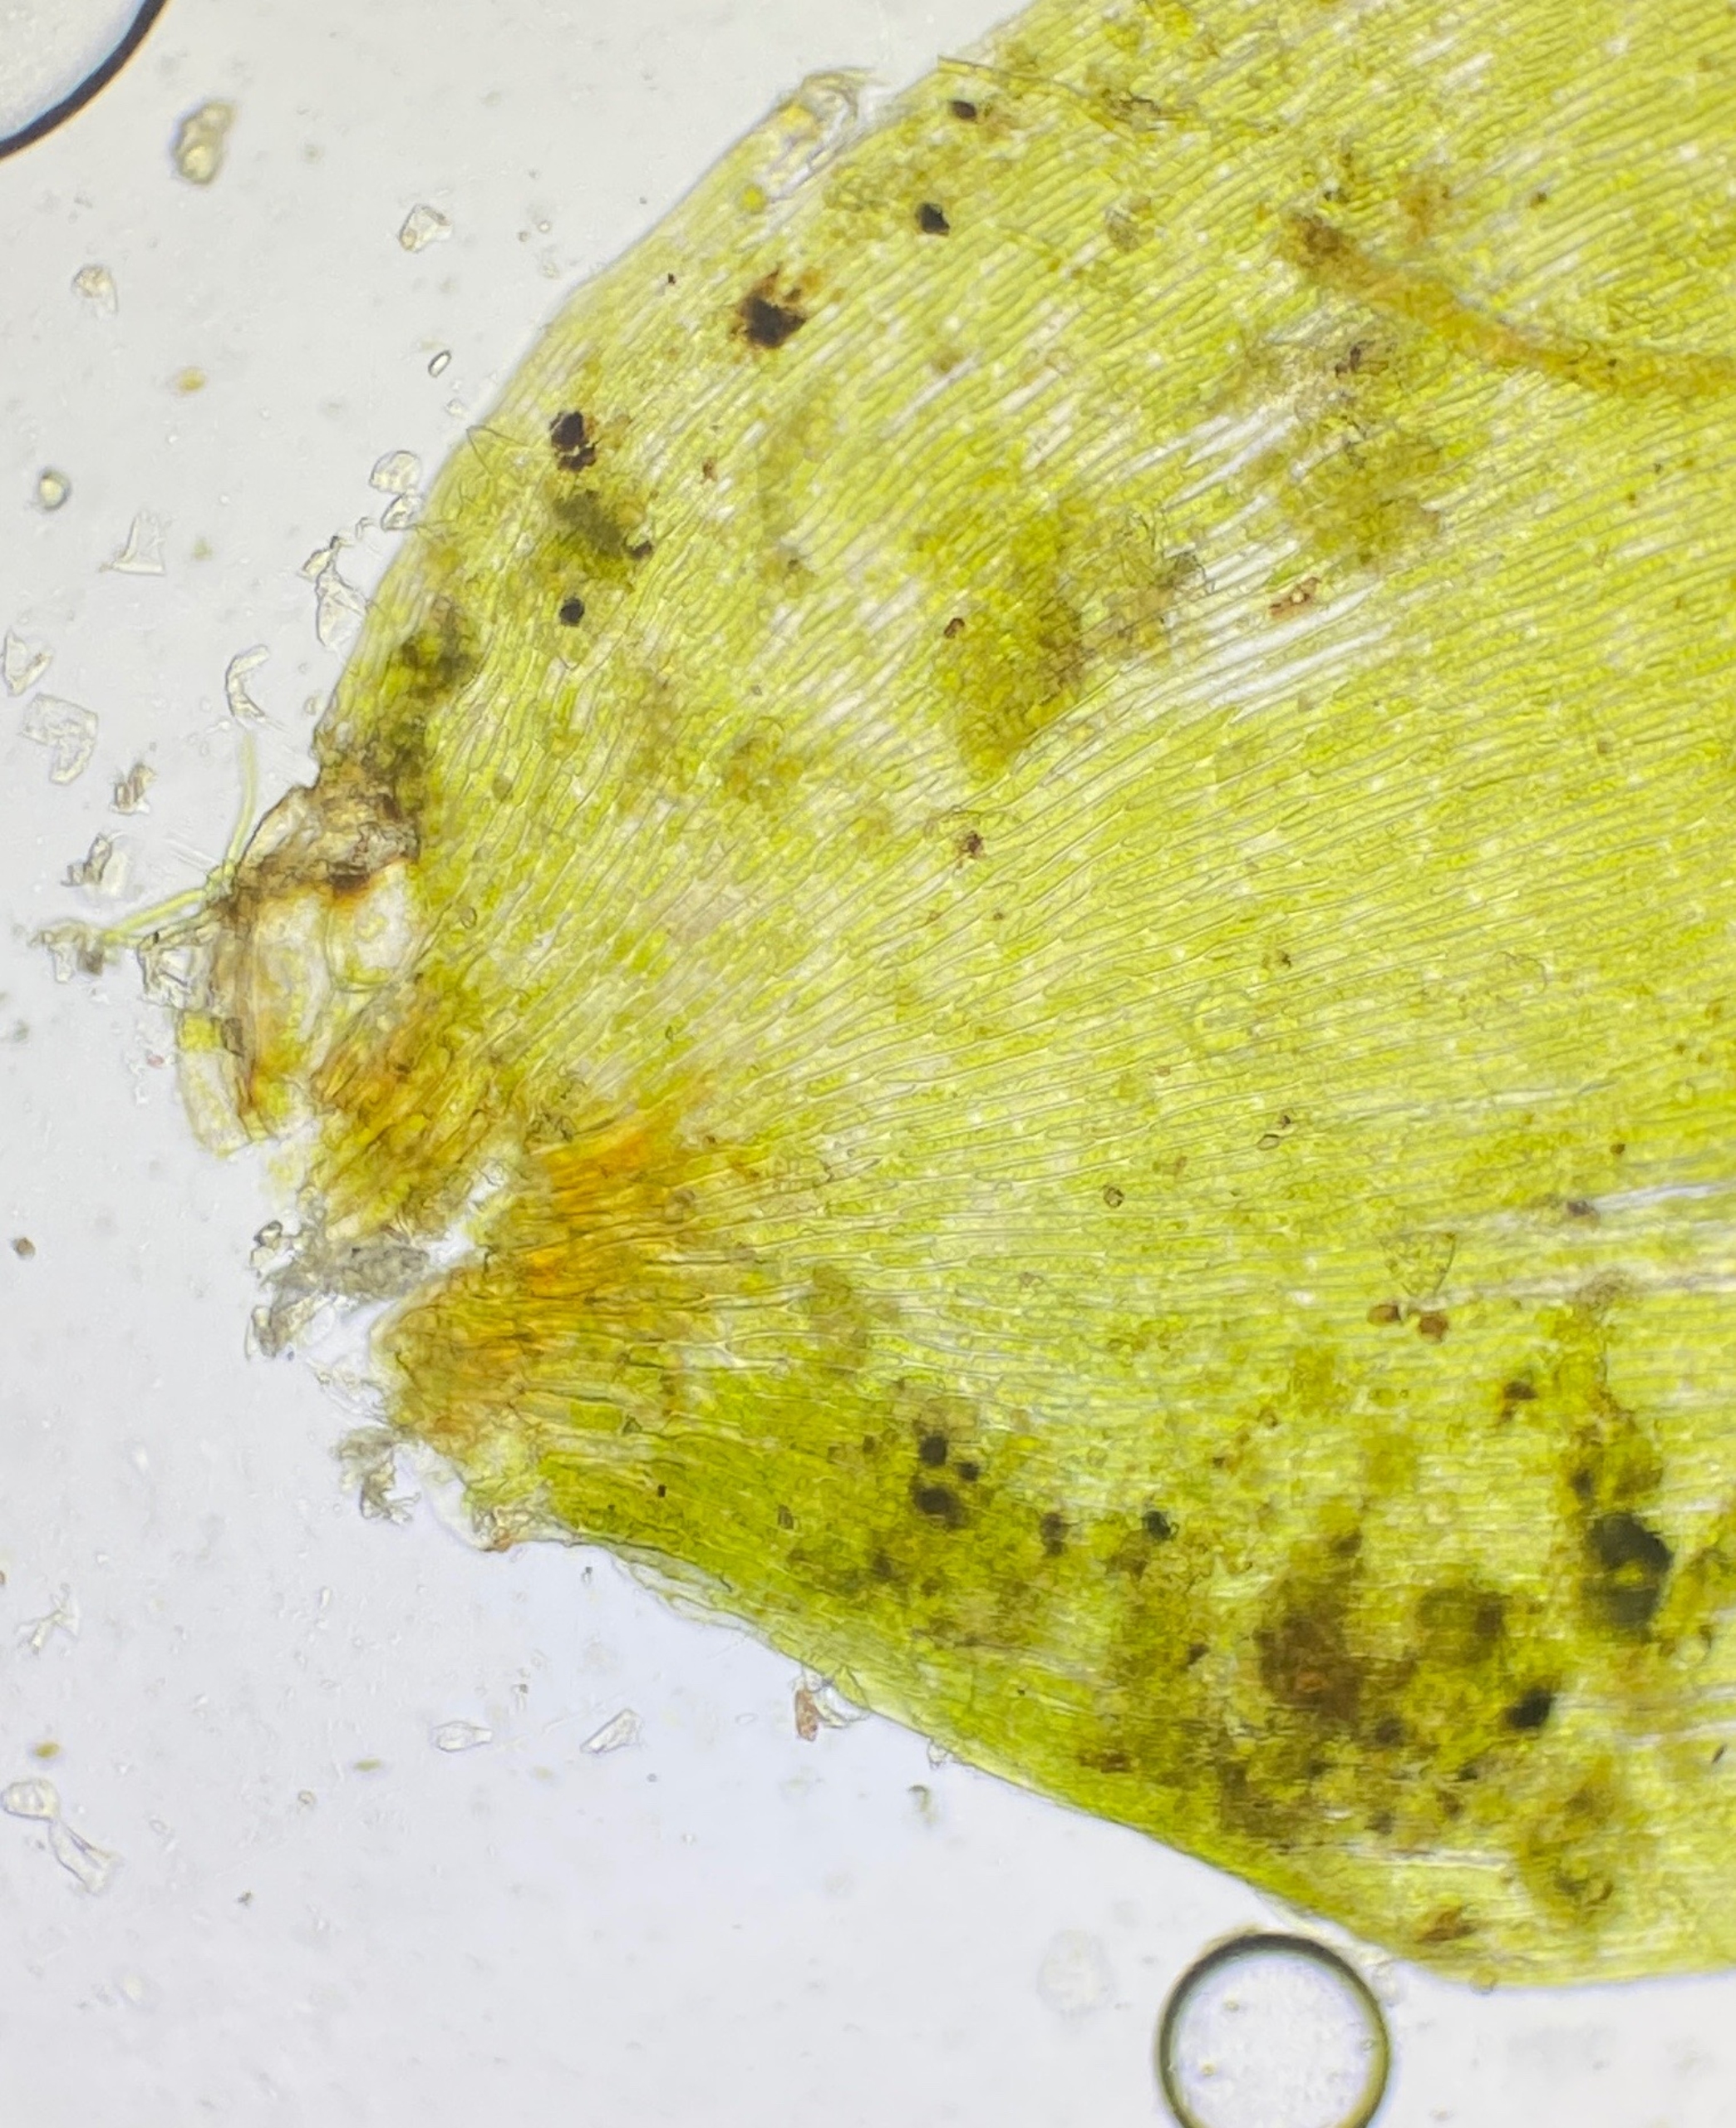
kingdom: Plantae
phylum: Bryophyta
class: Bryopsida
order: Hypnales
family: Fontinalaceae
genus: Fontinalis
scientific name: Fontinalis dalecarlica
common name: Smal kildemos
